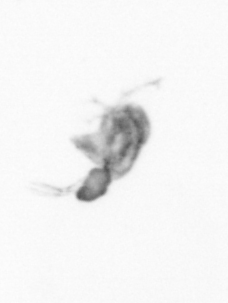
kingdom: Animalia
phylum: Arthropoda
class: Copepoda
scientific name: Copepoda
